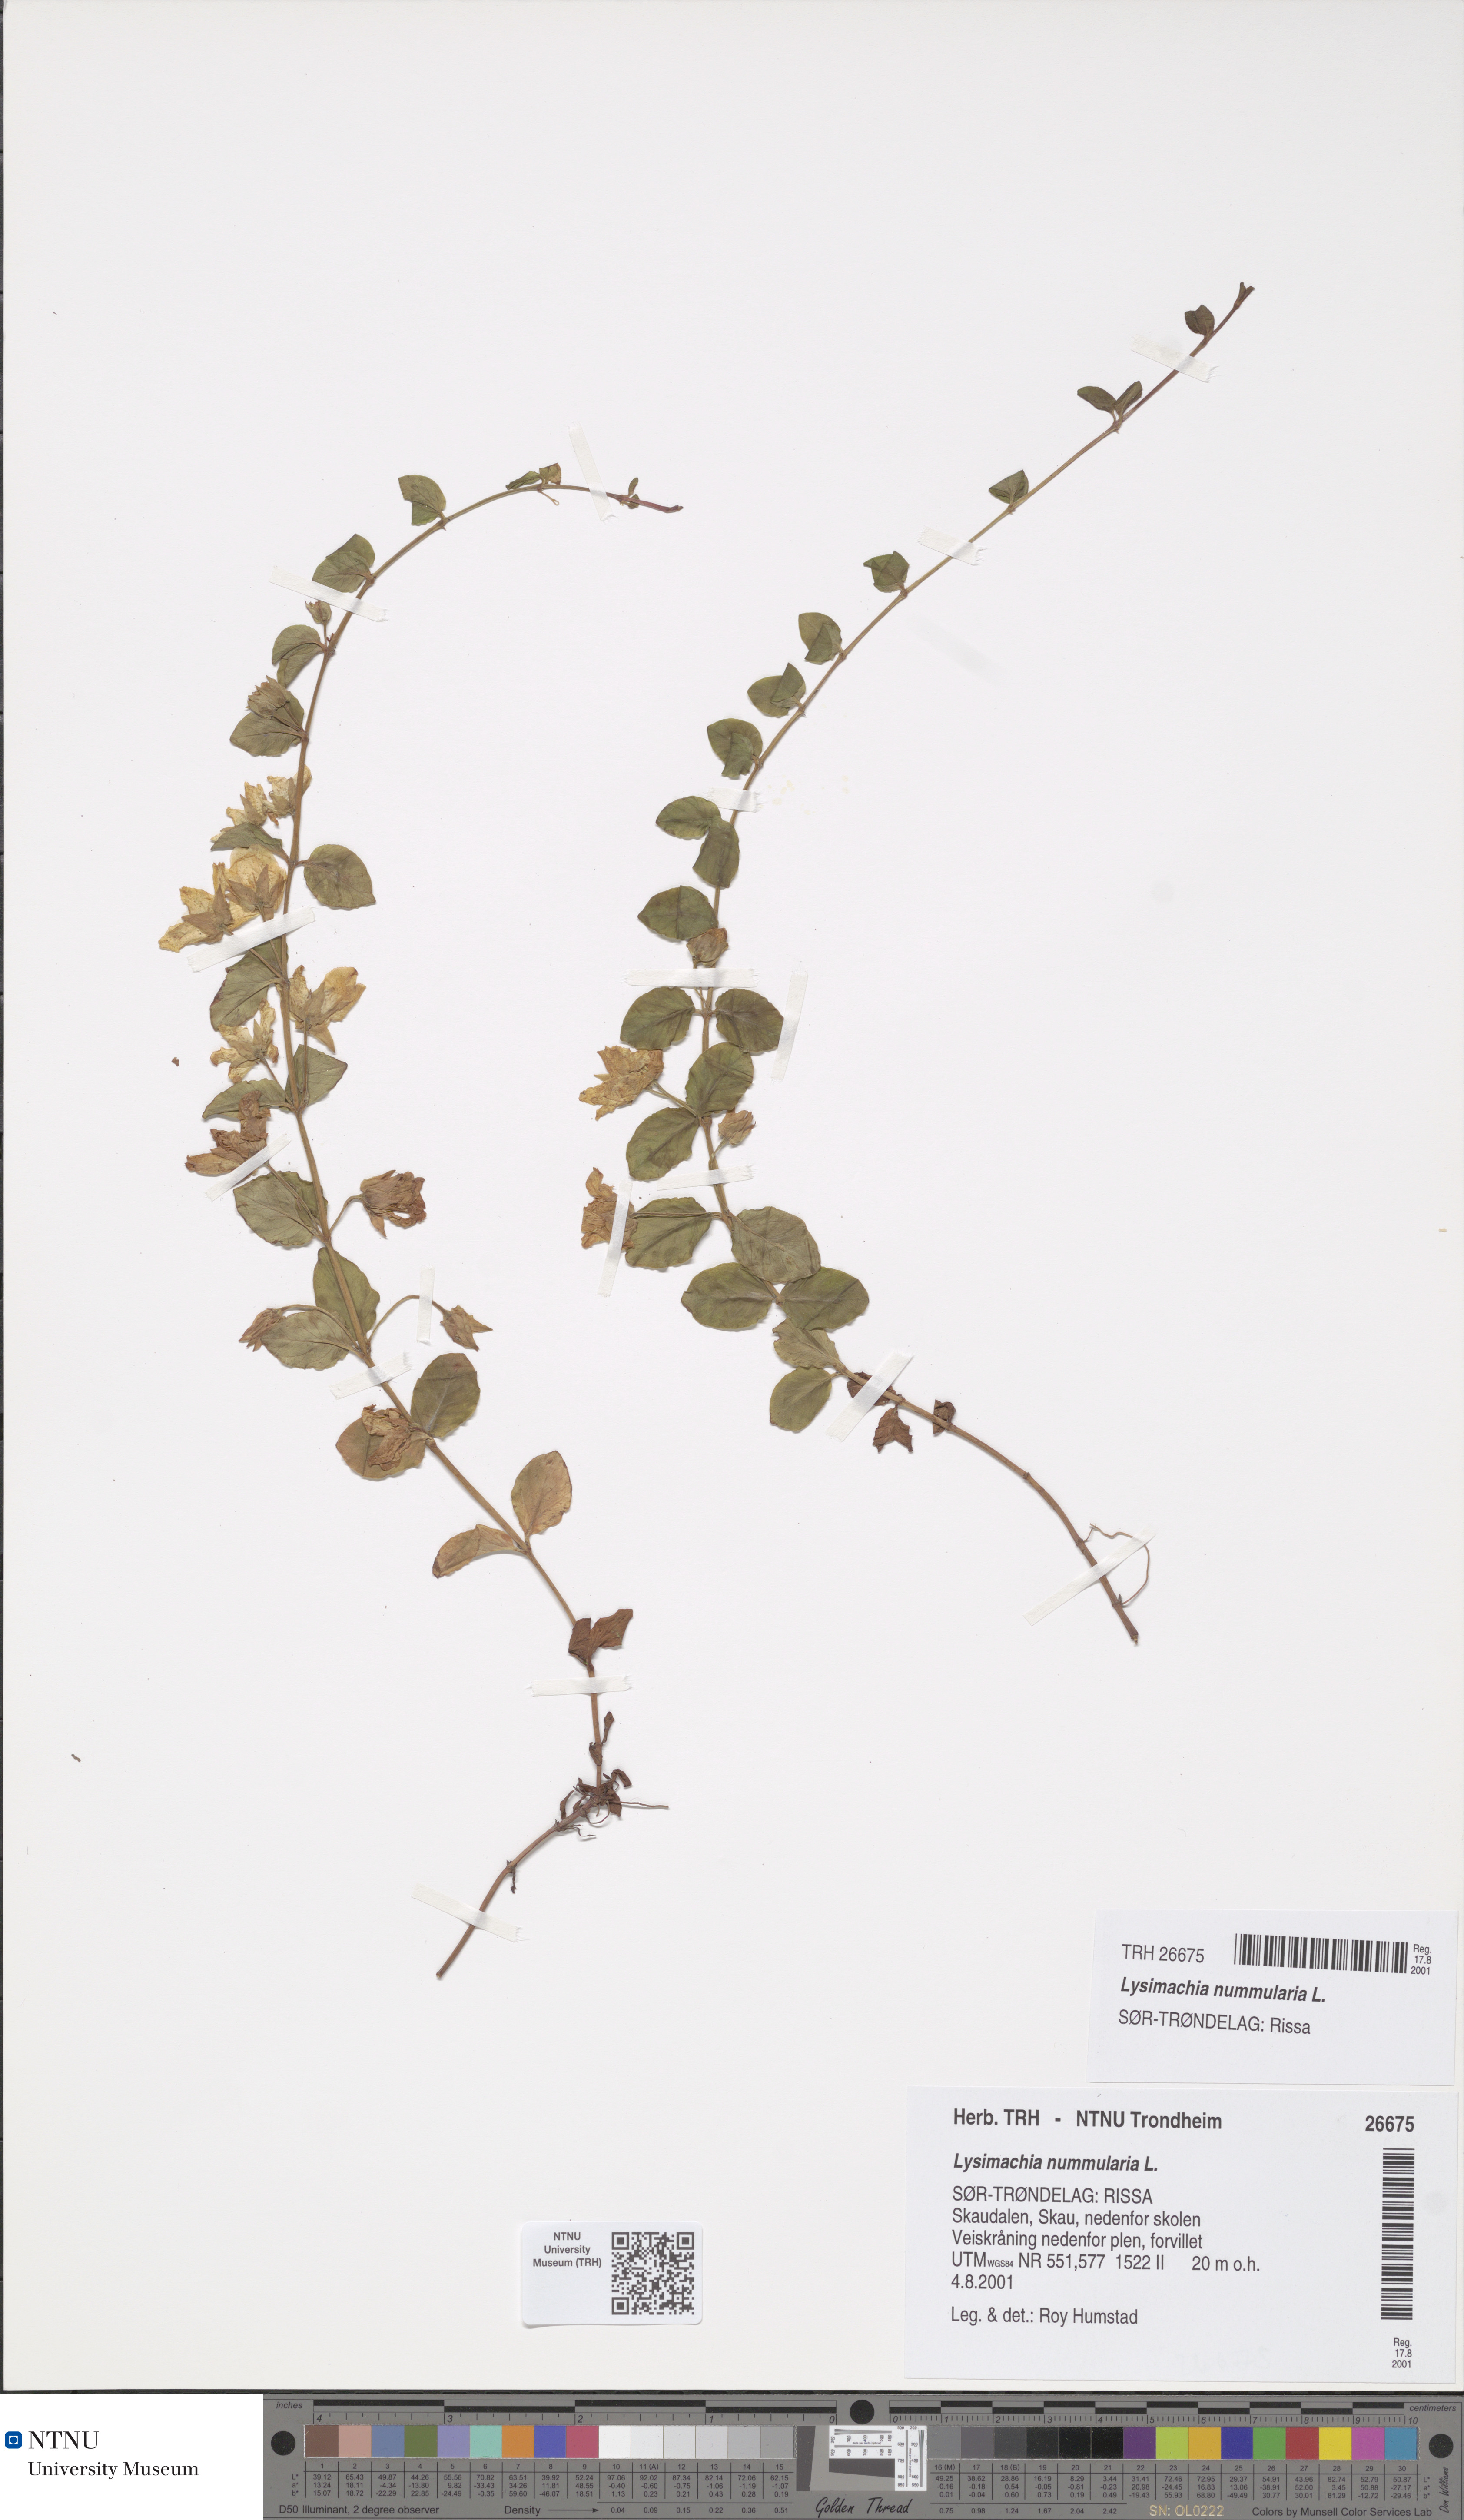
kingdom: Plantae
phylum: Tracheophyta
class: Magnoliopsida
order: Ericales
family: Primulaceae
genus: Lysimachia
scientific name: Lysimachia nummularia
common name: Moneywort
